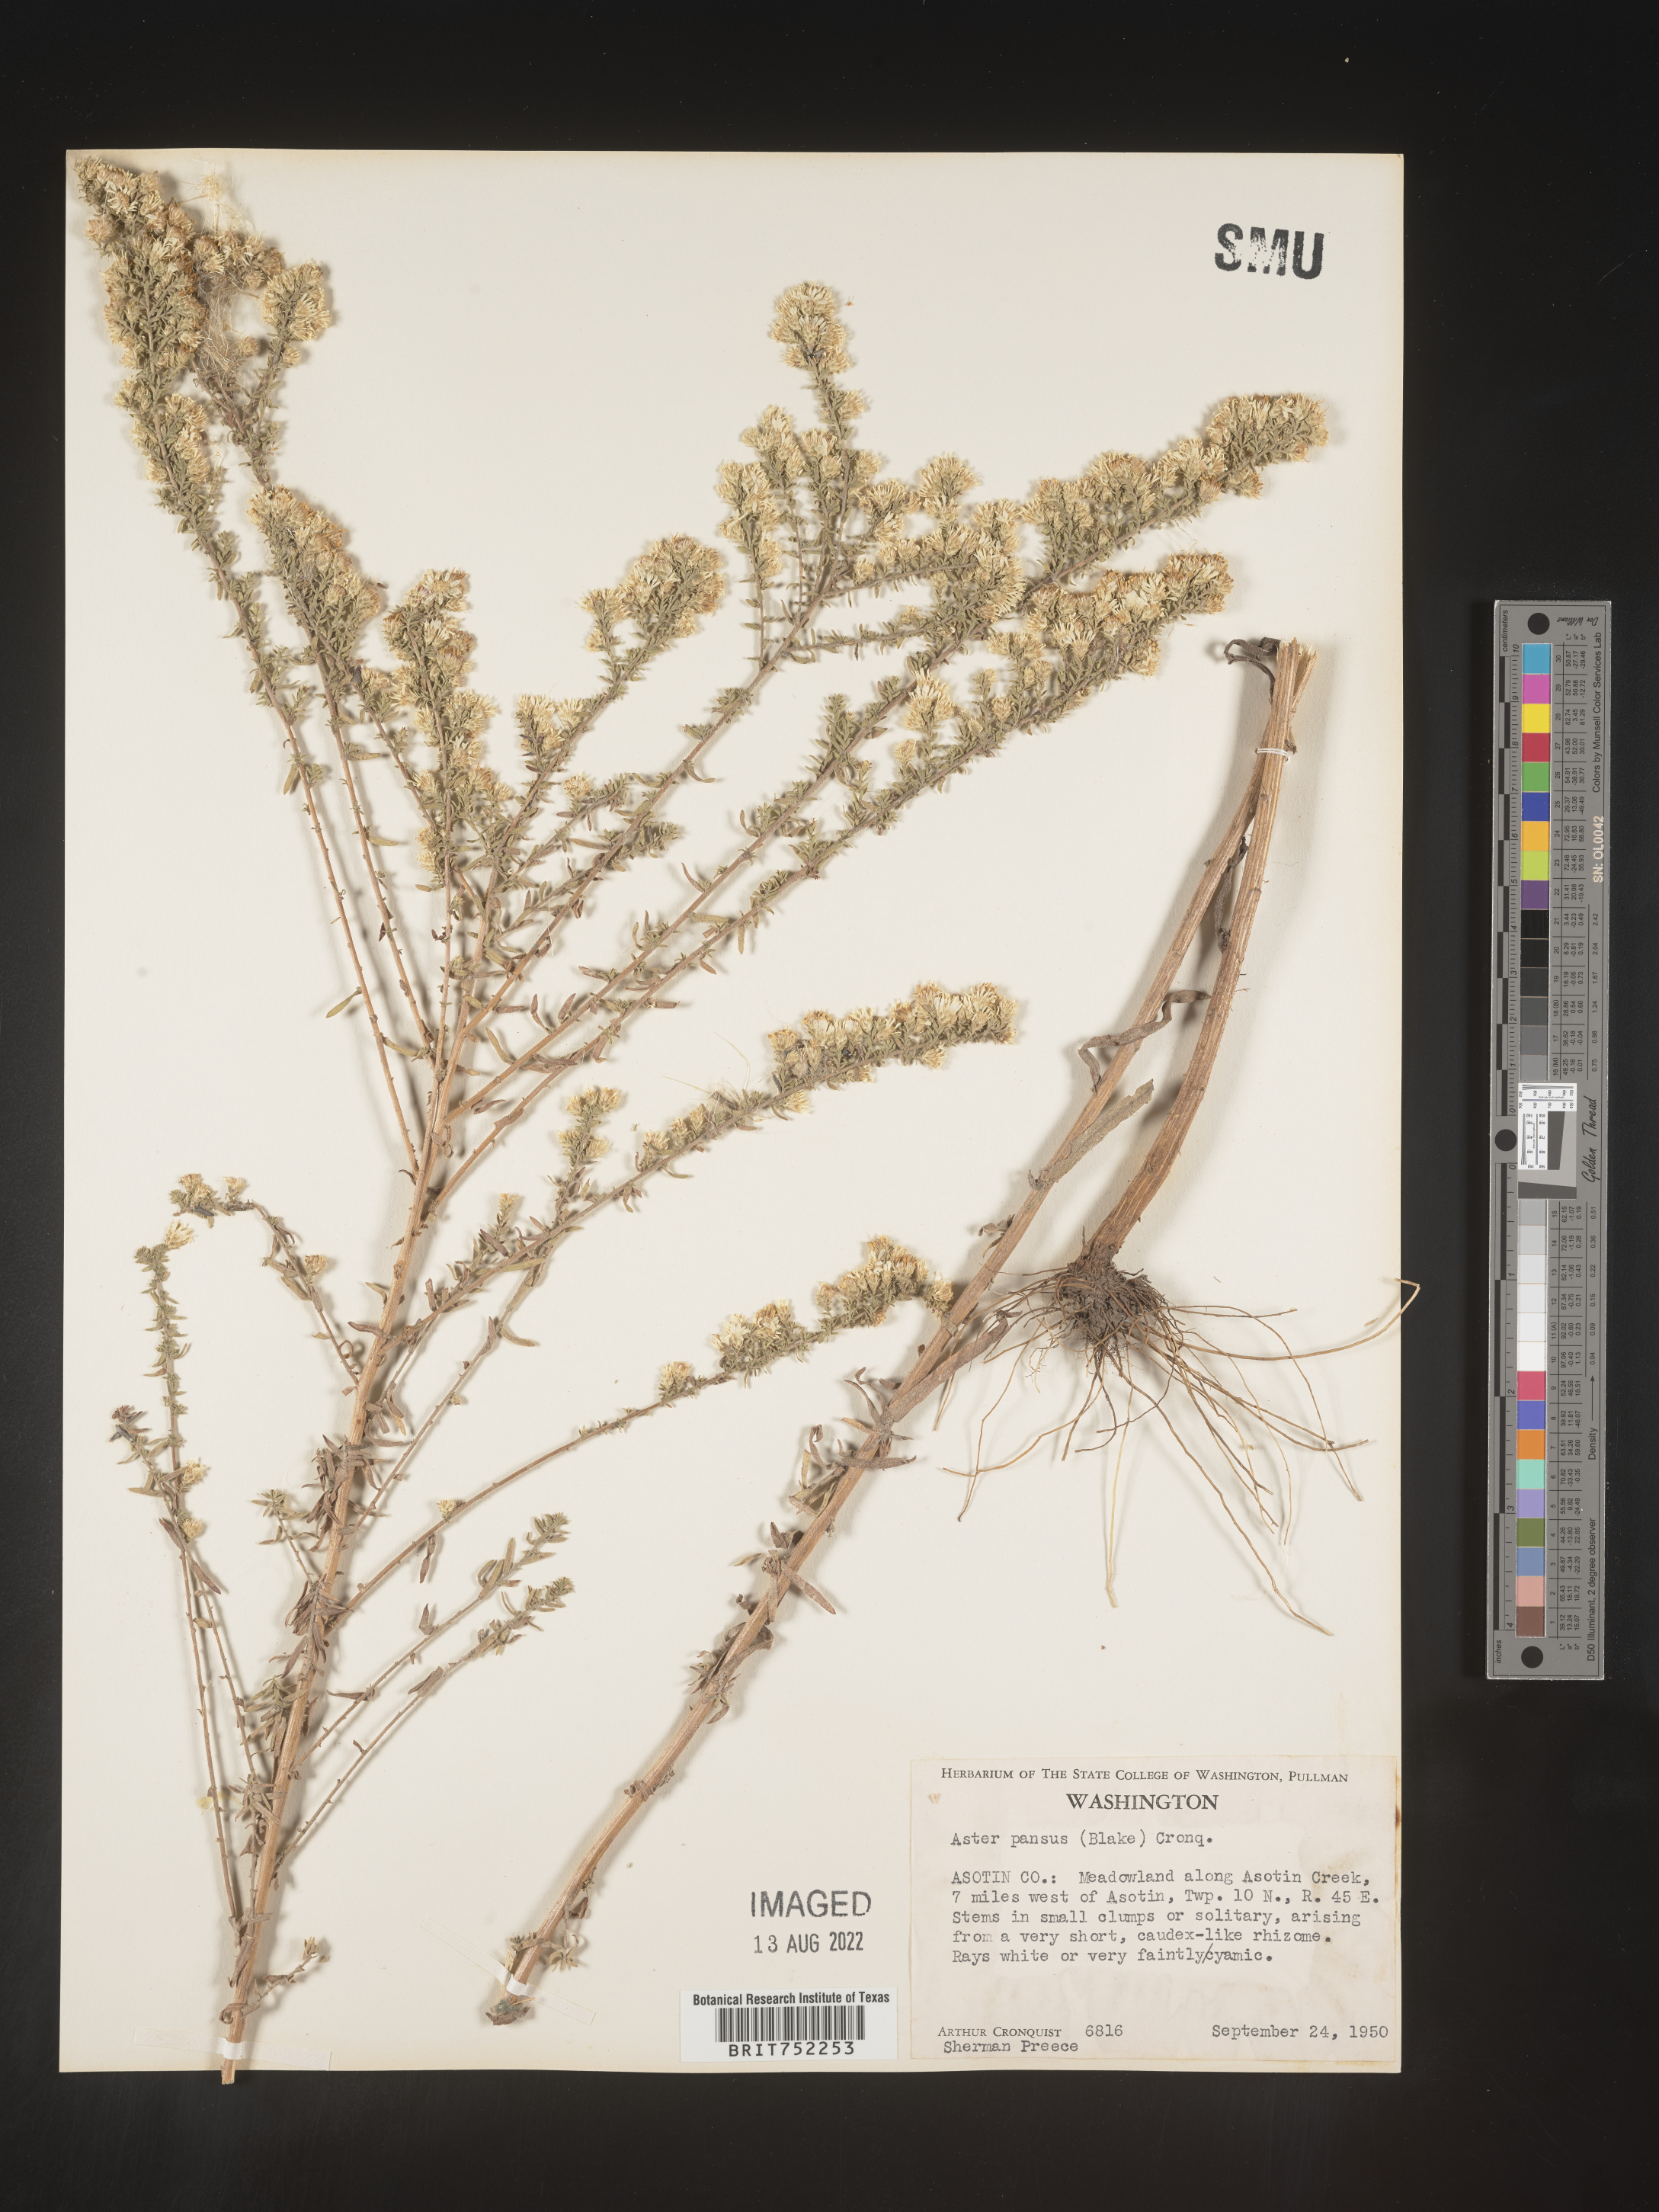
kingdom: Plantae
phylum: Tracheophyta
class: Magnoliopsida
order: Asterales
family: Asteraceae
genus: Symphyotrichum
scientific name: Symphyotrichum ericoides
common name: Heath aster
